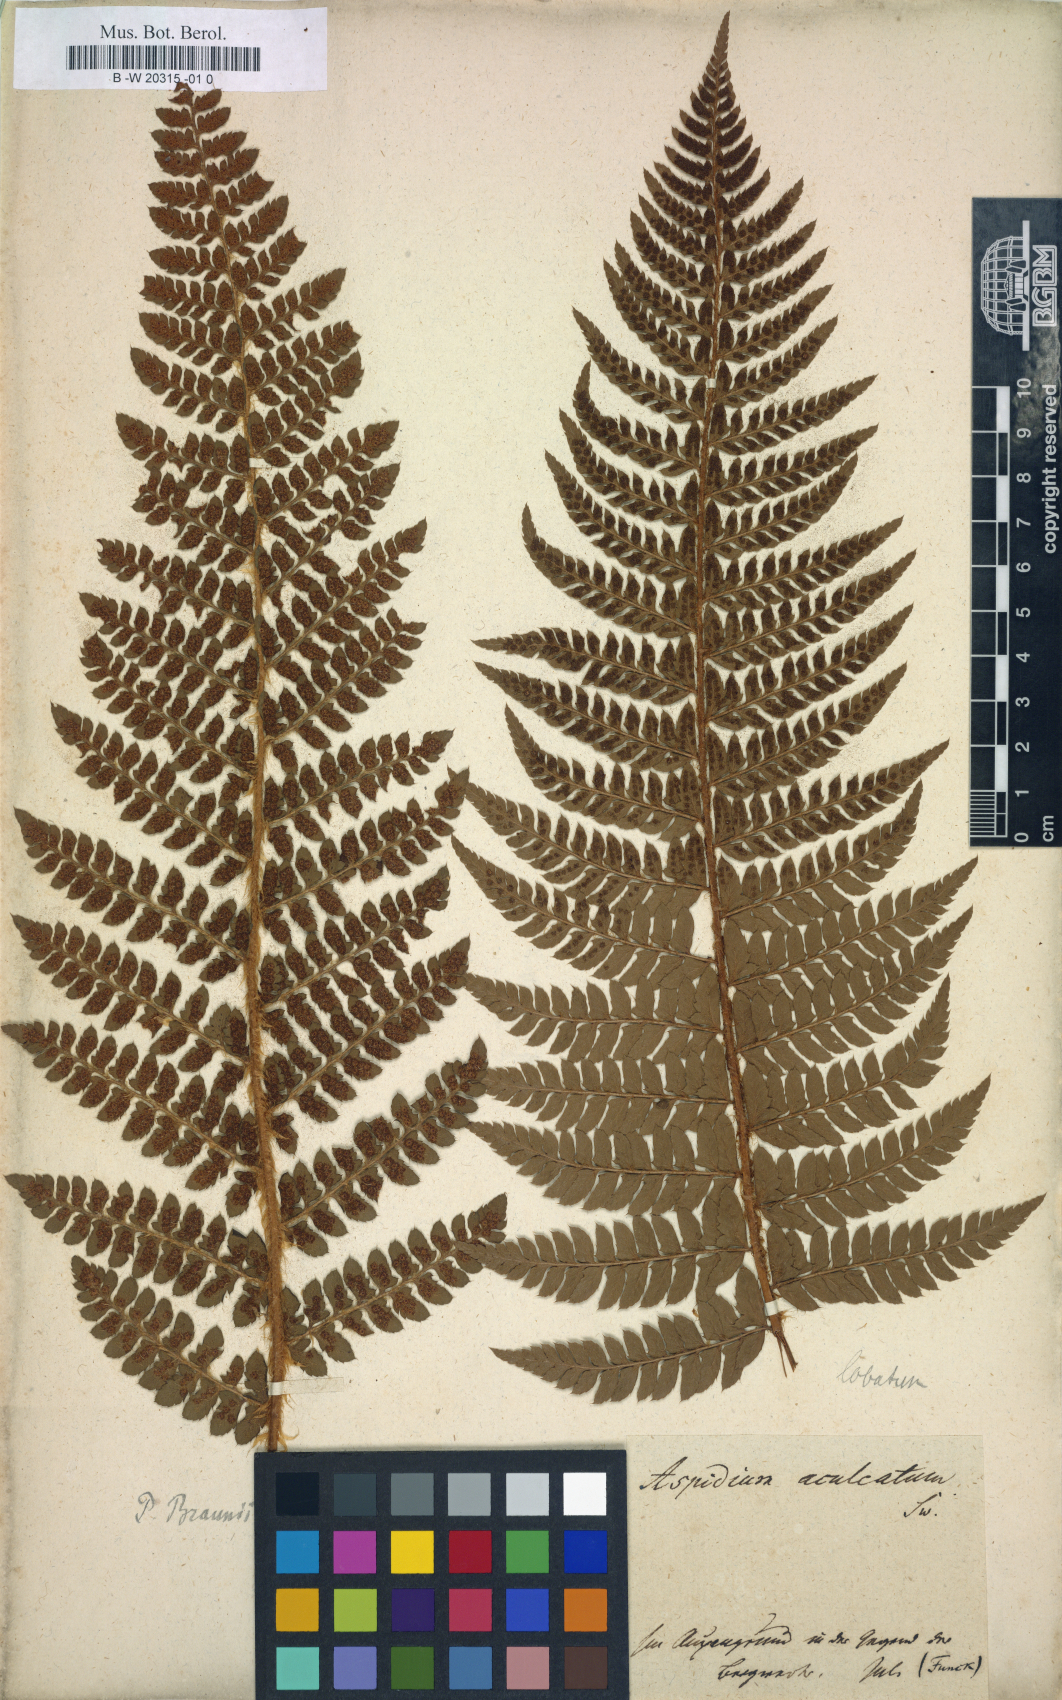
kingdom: Plantae
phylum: Tracheophyta
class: Polypodiopsida
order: Polypodiales
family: Dryopteridaceae
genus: Polystichum
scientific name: Polystichum aculeatum
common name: Hard shield-fern
